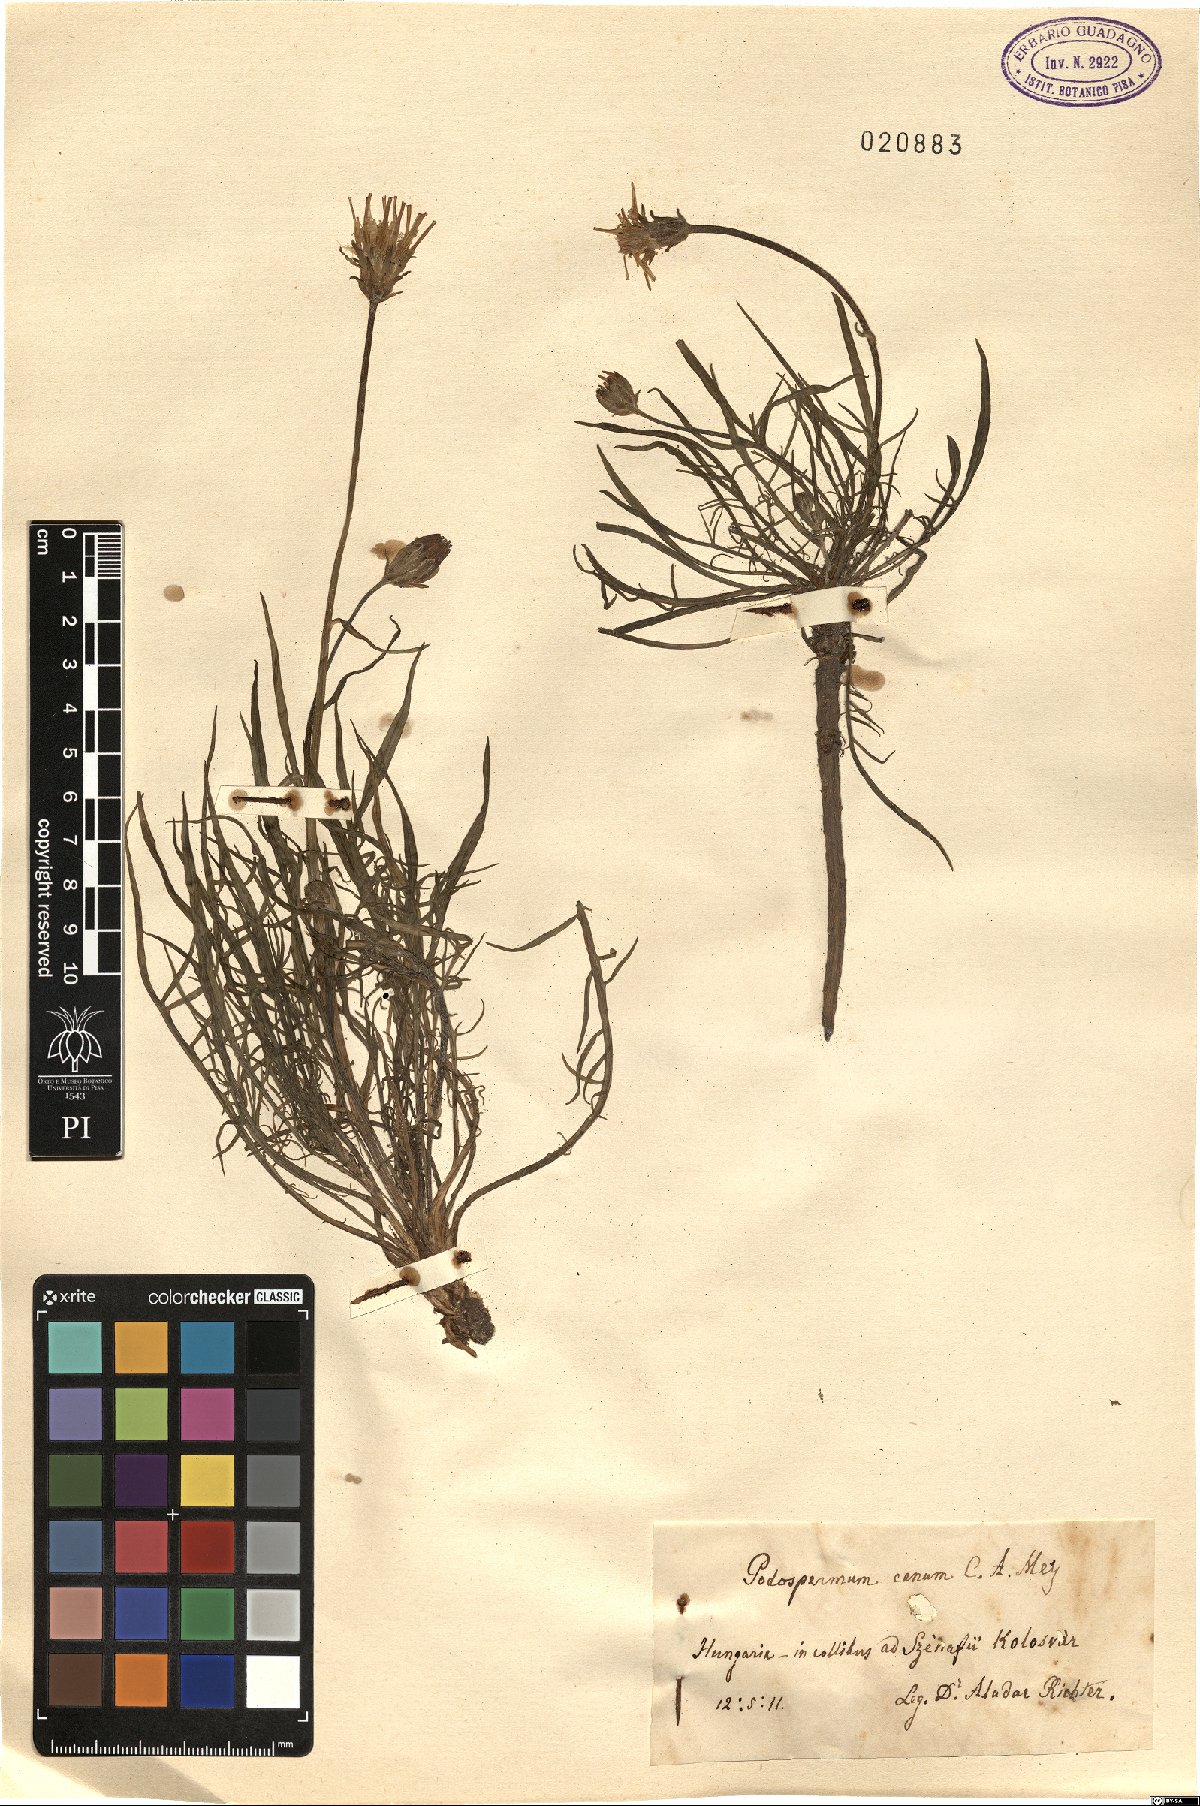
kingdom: Plantae
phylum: Tracheophyta
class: Magnoliopsida
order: Asterales
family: Asteraceae
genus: Scorzonera
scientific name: Scorzonera cana
